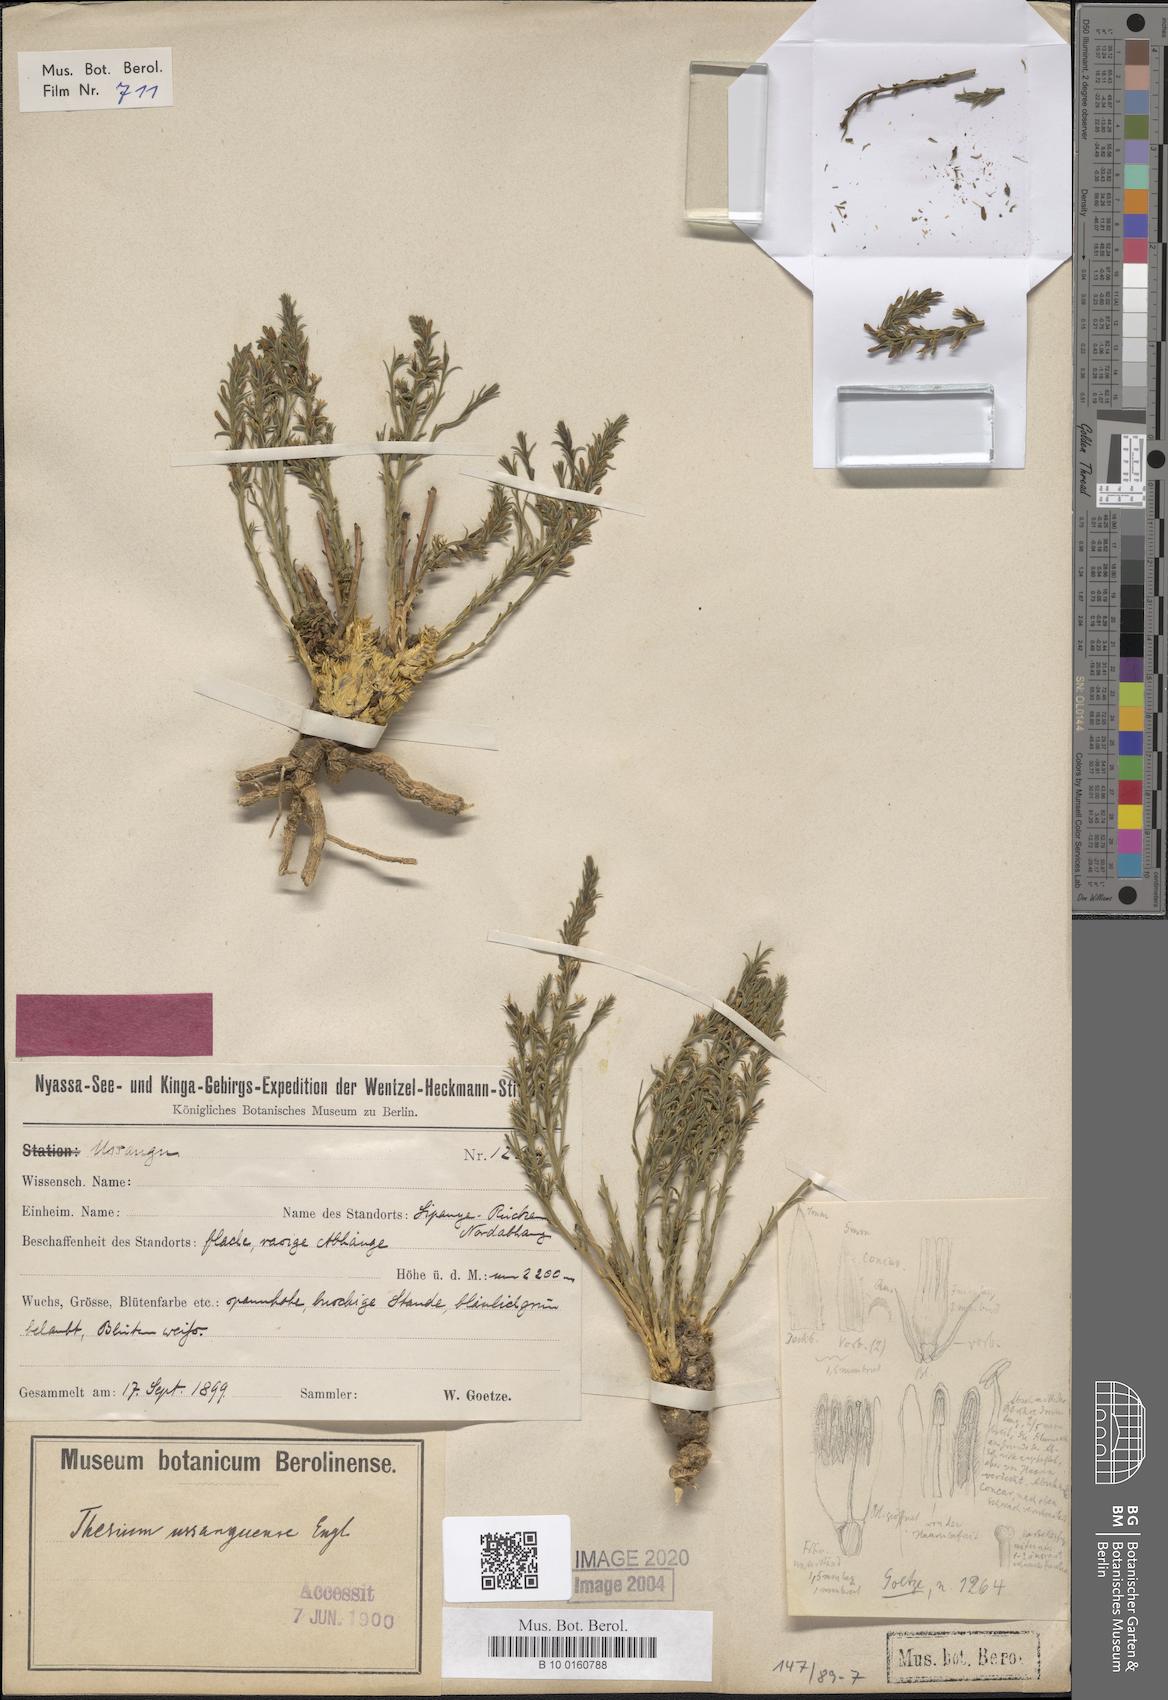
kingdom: Plantae
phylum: Tracheophyta
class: Magnoliopsida
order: Santalales
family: Thesiaceae
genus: Thesium
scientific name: Thesium ussanguense
